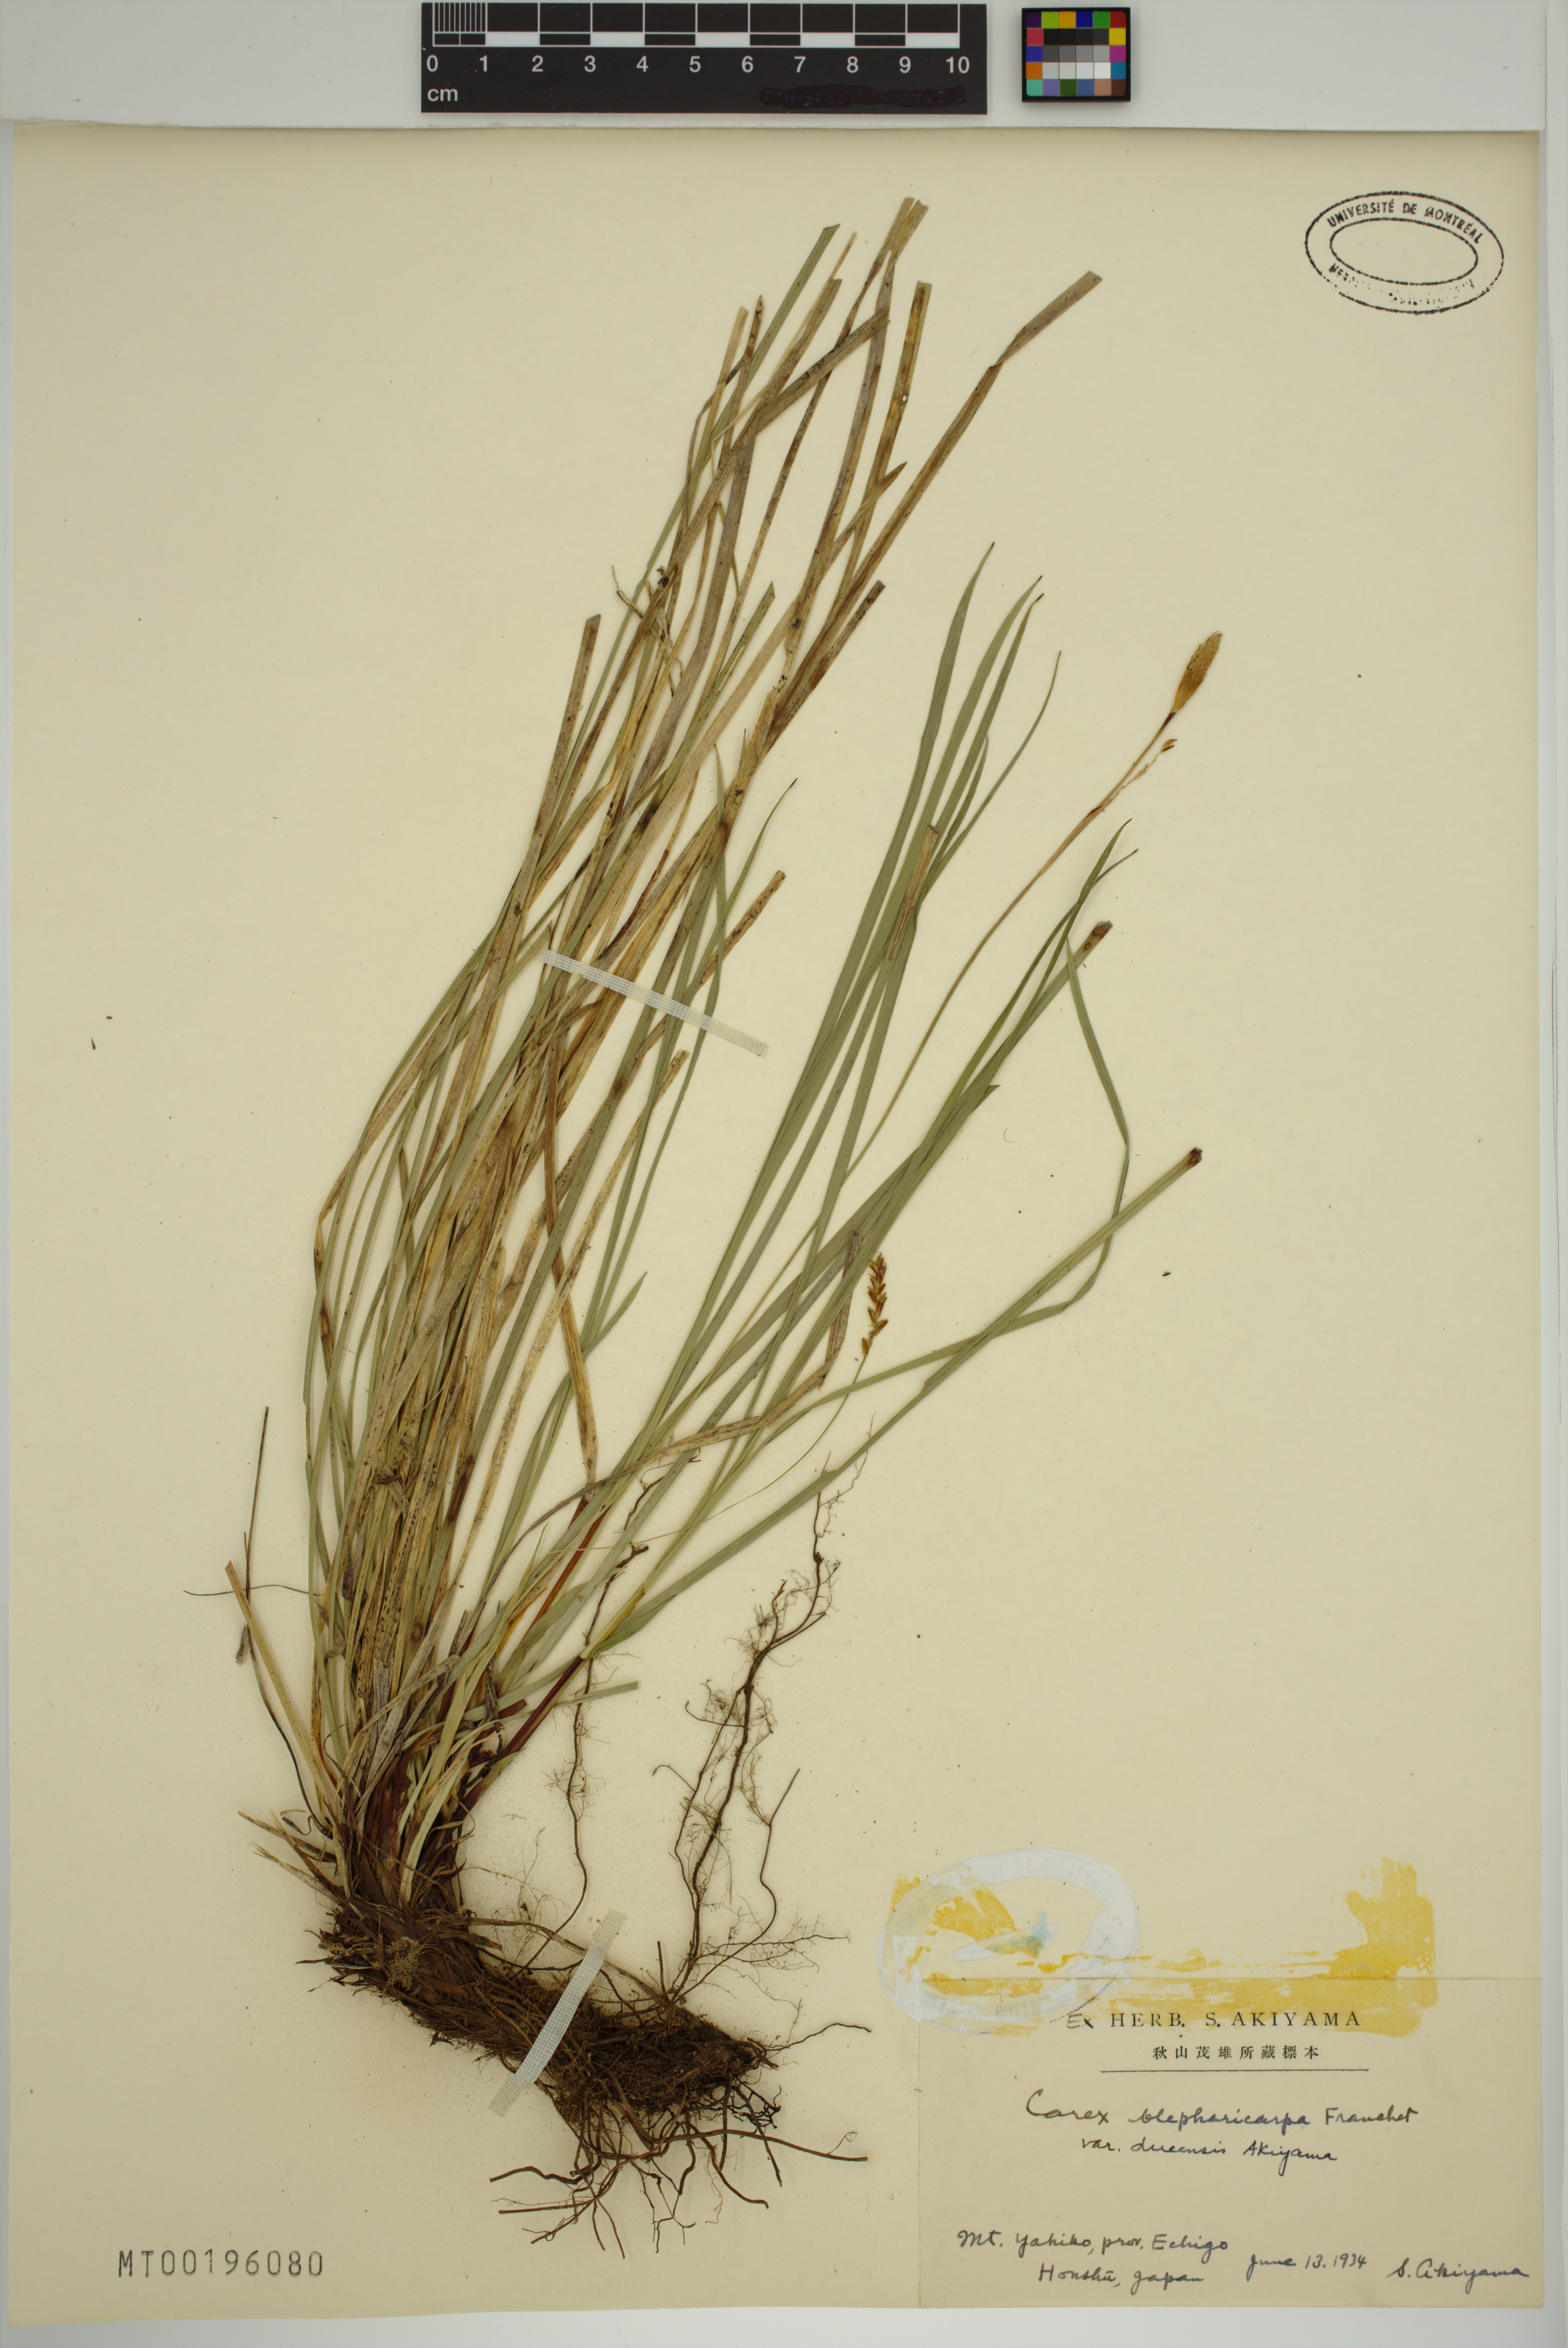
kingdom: Plantae
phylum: Tracheophyta
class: Liliopsida
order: Poales
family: Cyperaceae
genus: Carex
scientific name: Carex blepharicarpa
